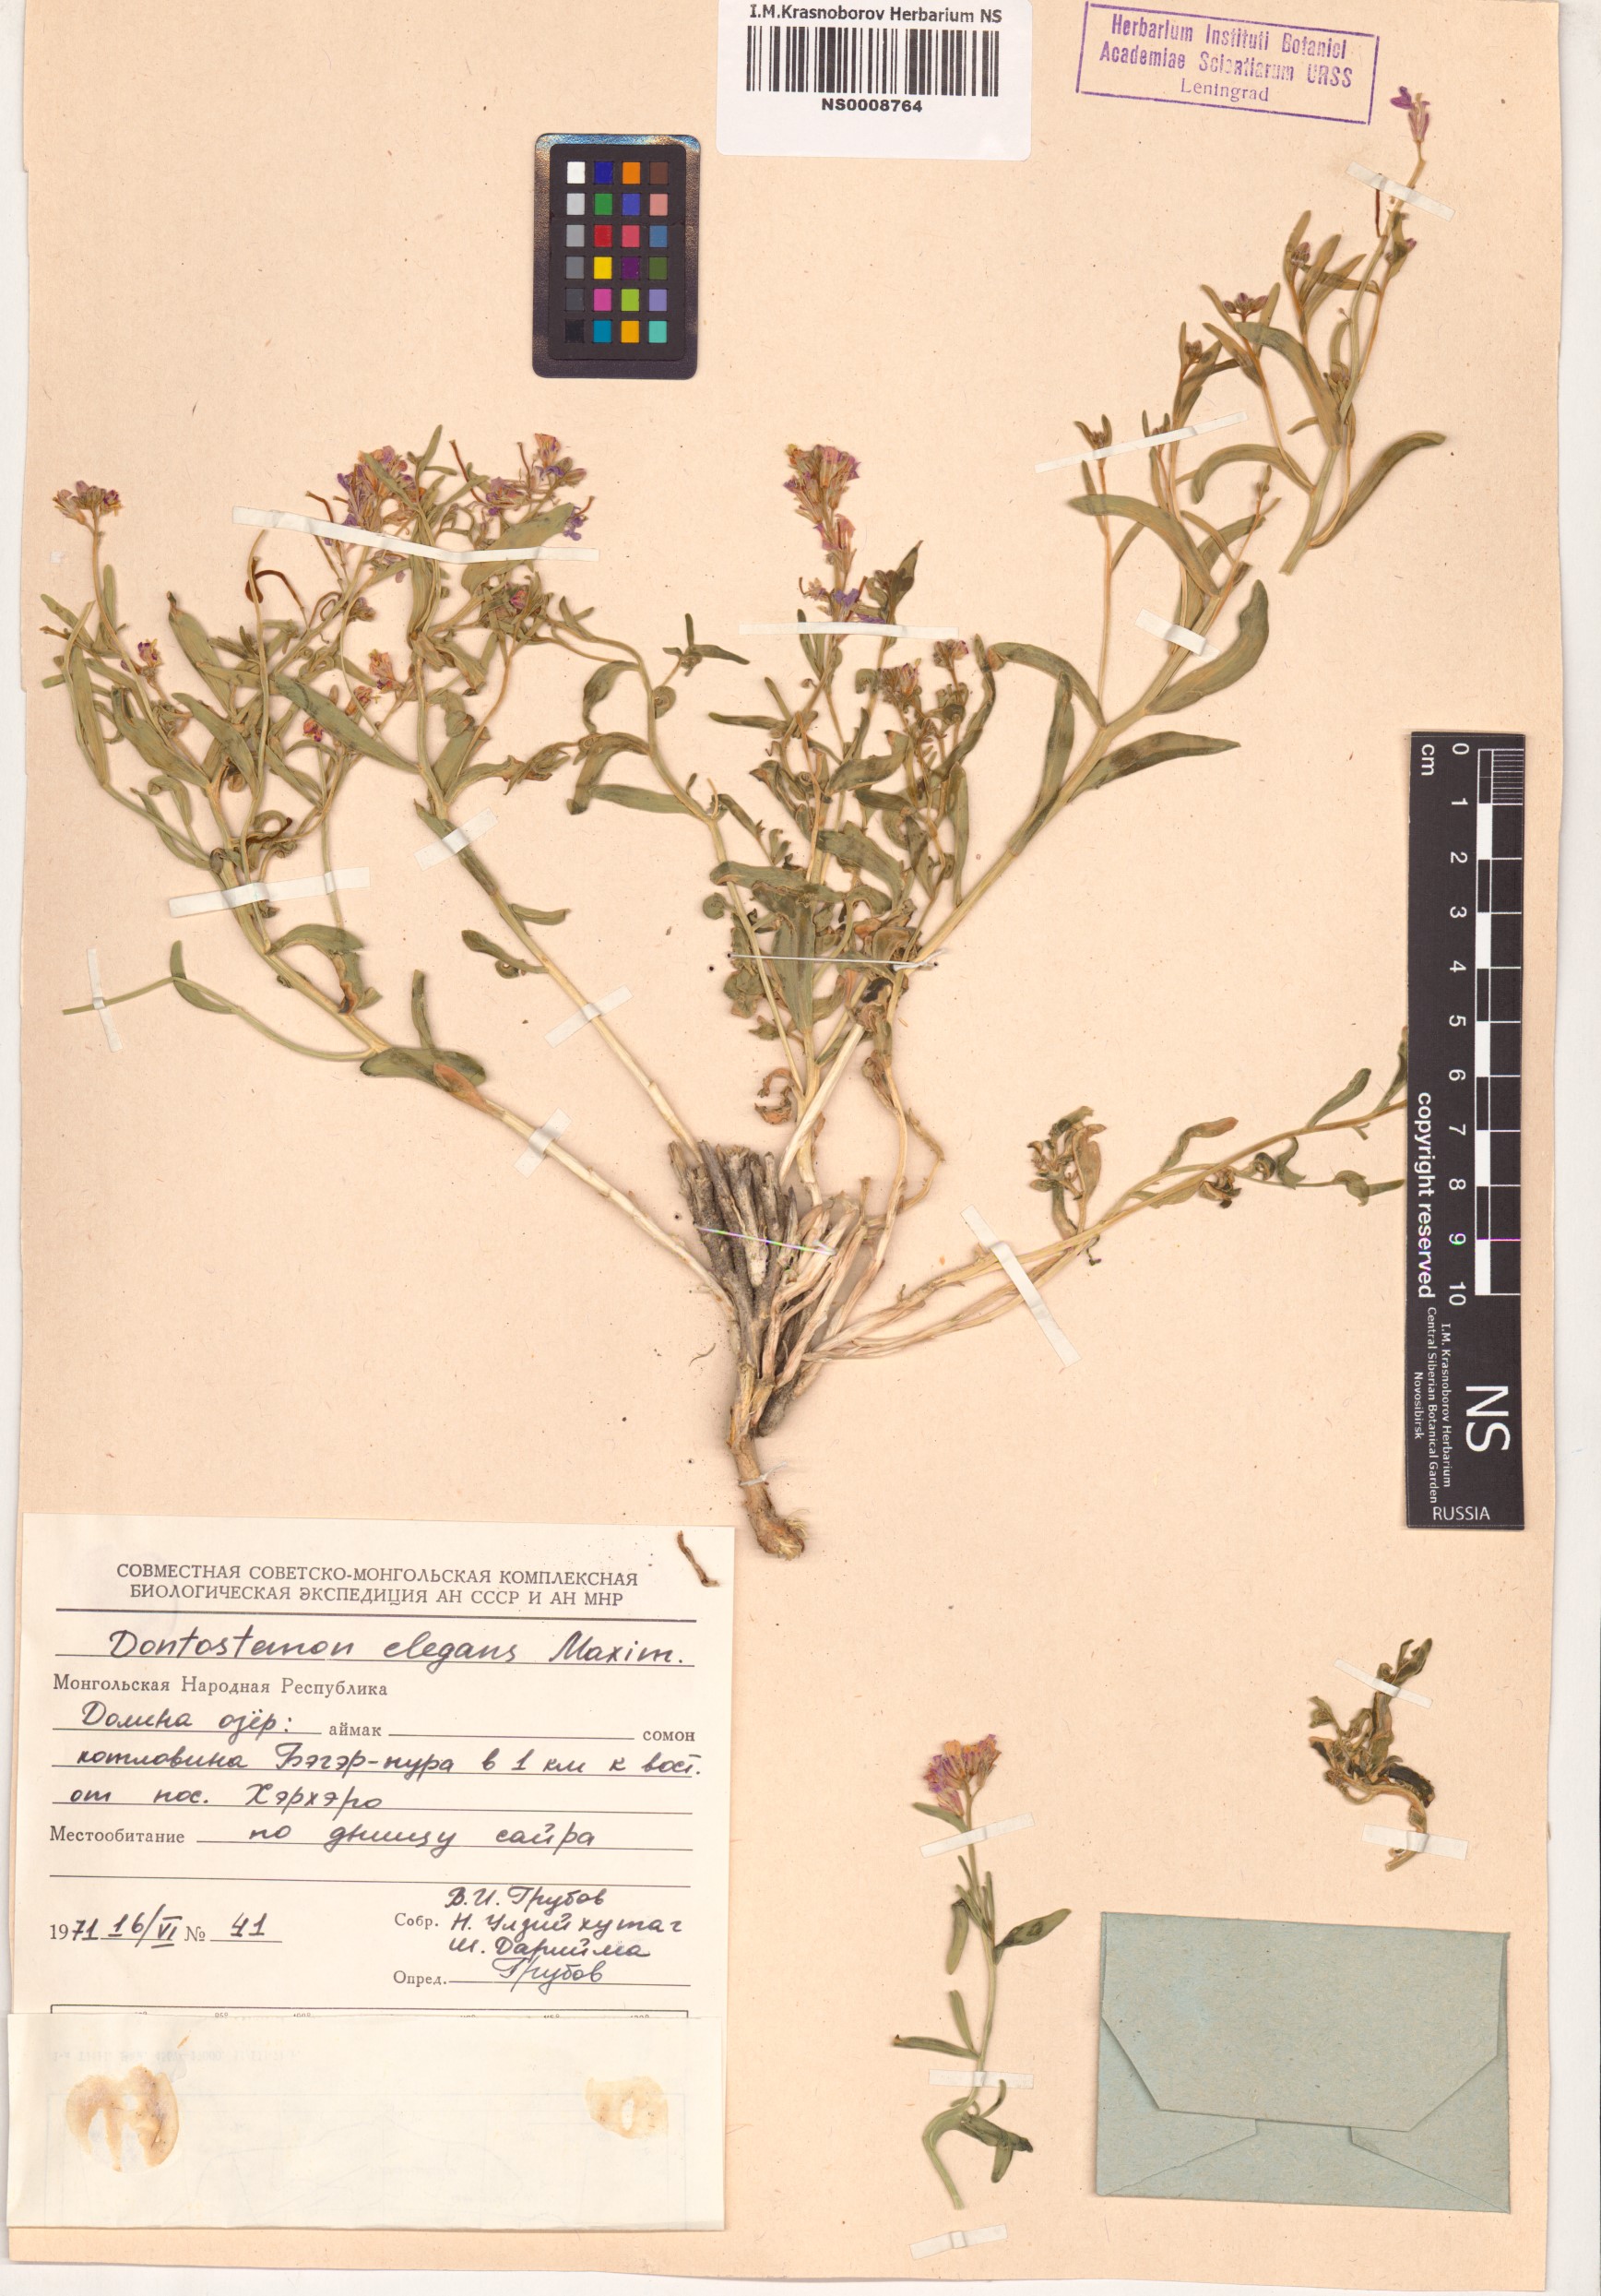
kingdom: Plantae
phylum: Tracheophyta
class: Magnoliopsida
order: Brassicales
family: Brassicaceae
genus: Dontostemon
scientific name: Dontostemon elegans
